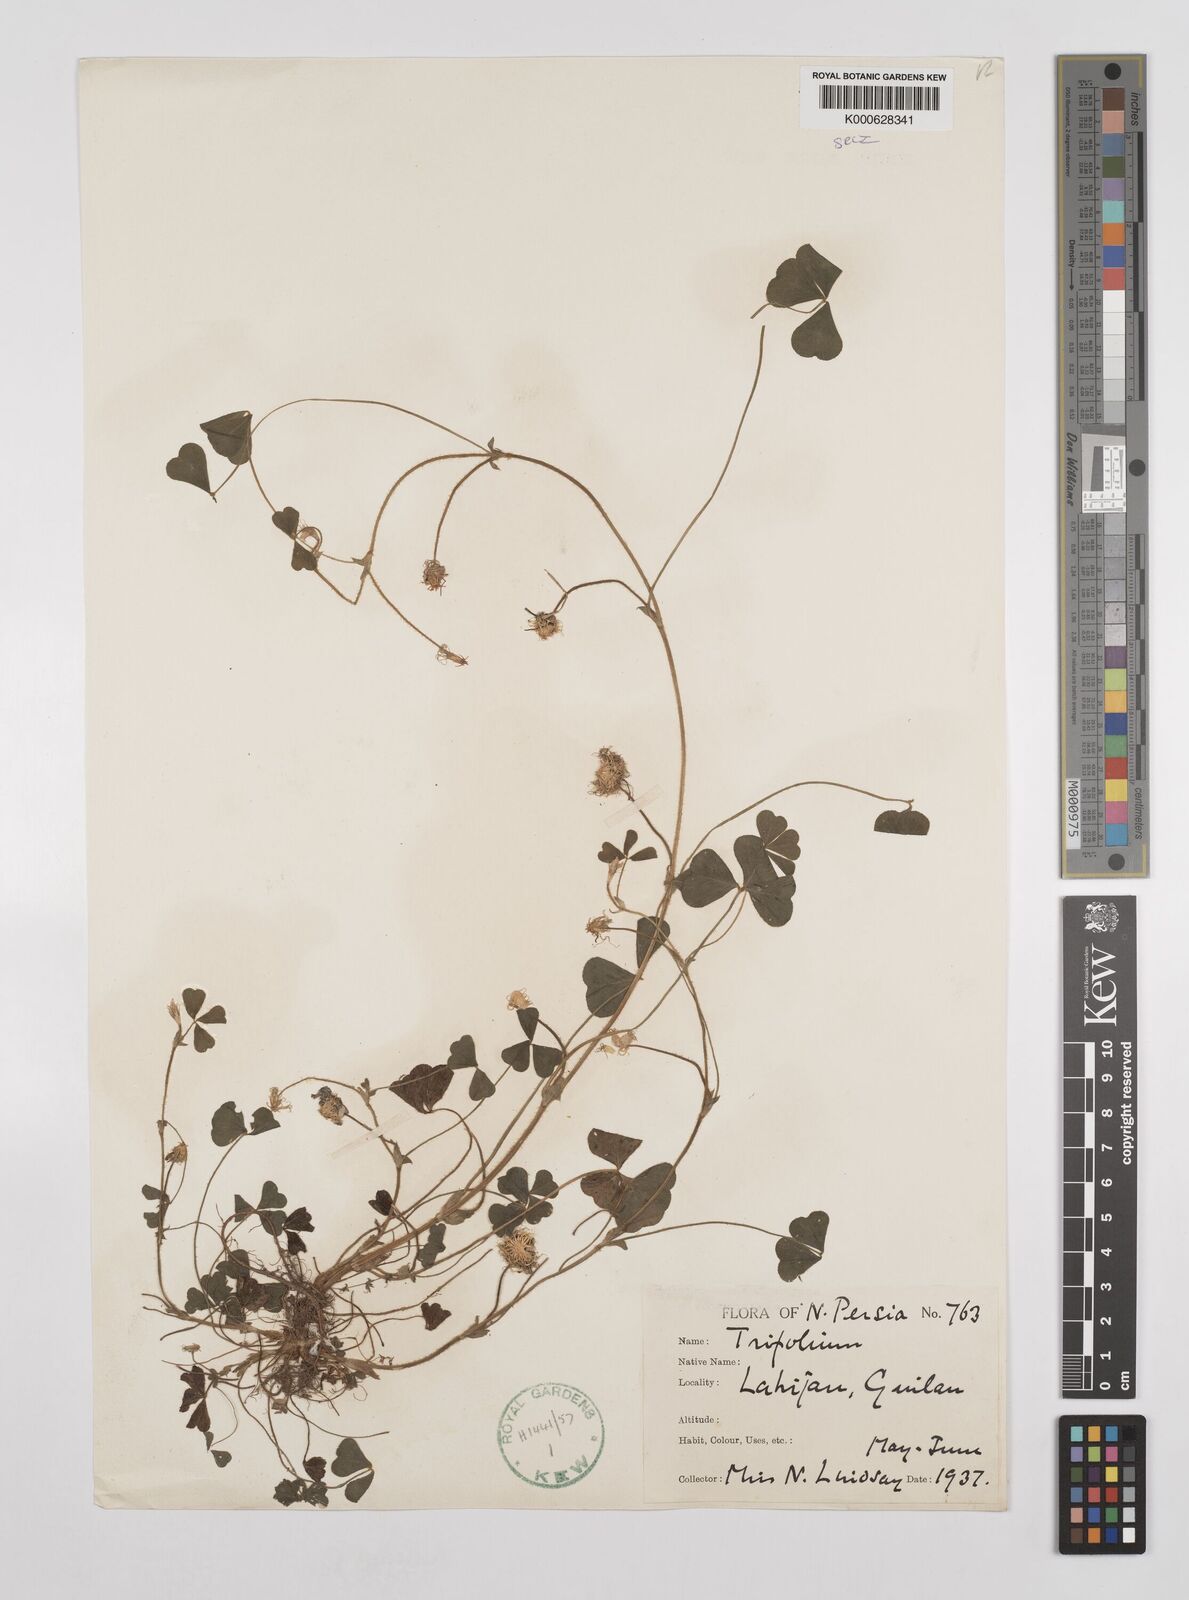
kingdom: Plantae
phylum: Tracheophyta
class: Magnoliopsida
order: Fabales
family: Fabaceae
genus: Trifolium
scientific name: Trifolium subterraneum
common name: Subterranean clover
